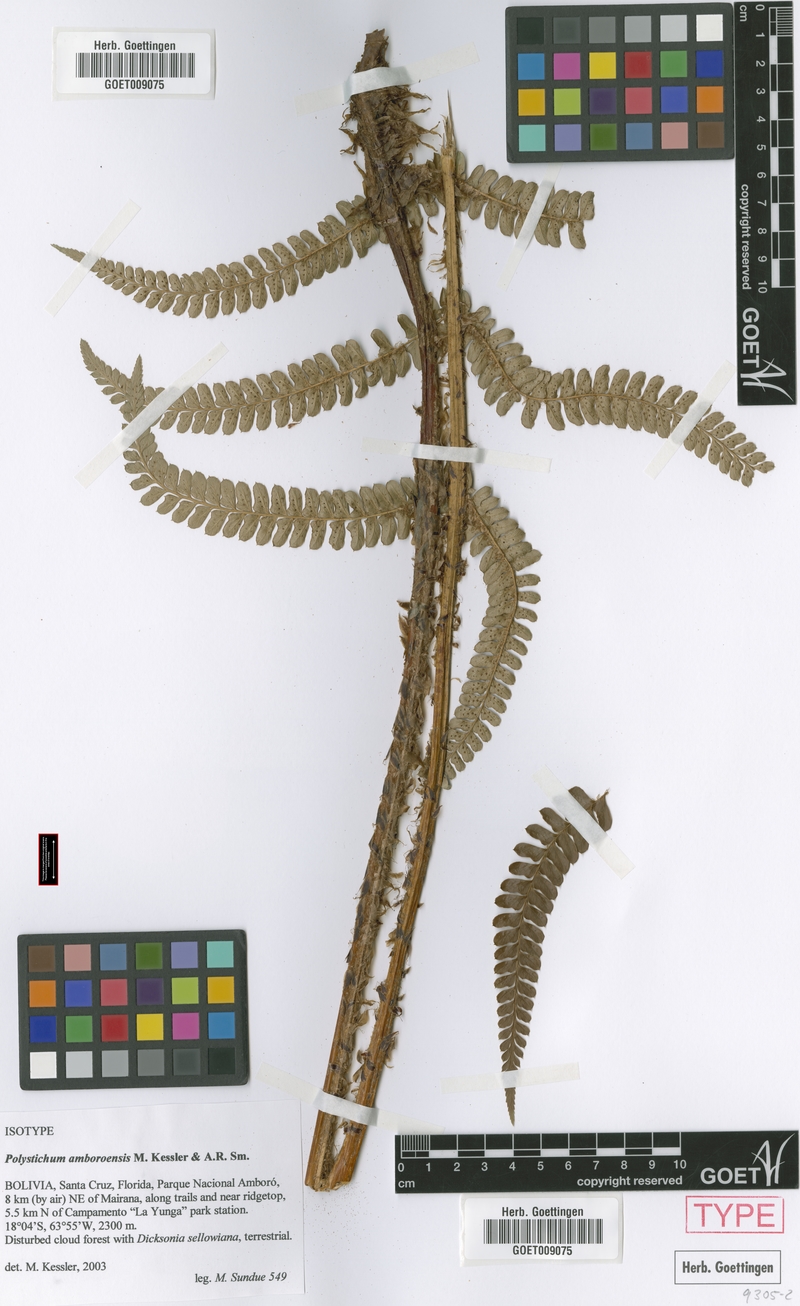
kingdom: Plantae
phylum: Tracheophyta
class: Polypodiopsida
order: Polypodiales
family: Dryopteridaceae
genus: Polystichum
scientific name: Polystichum amboroensis
